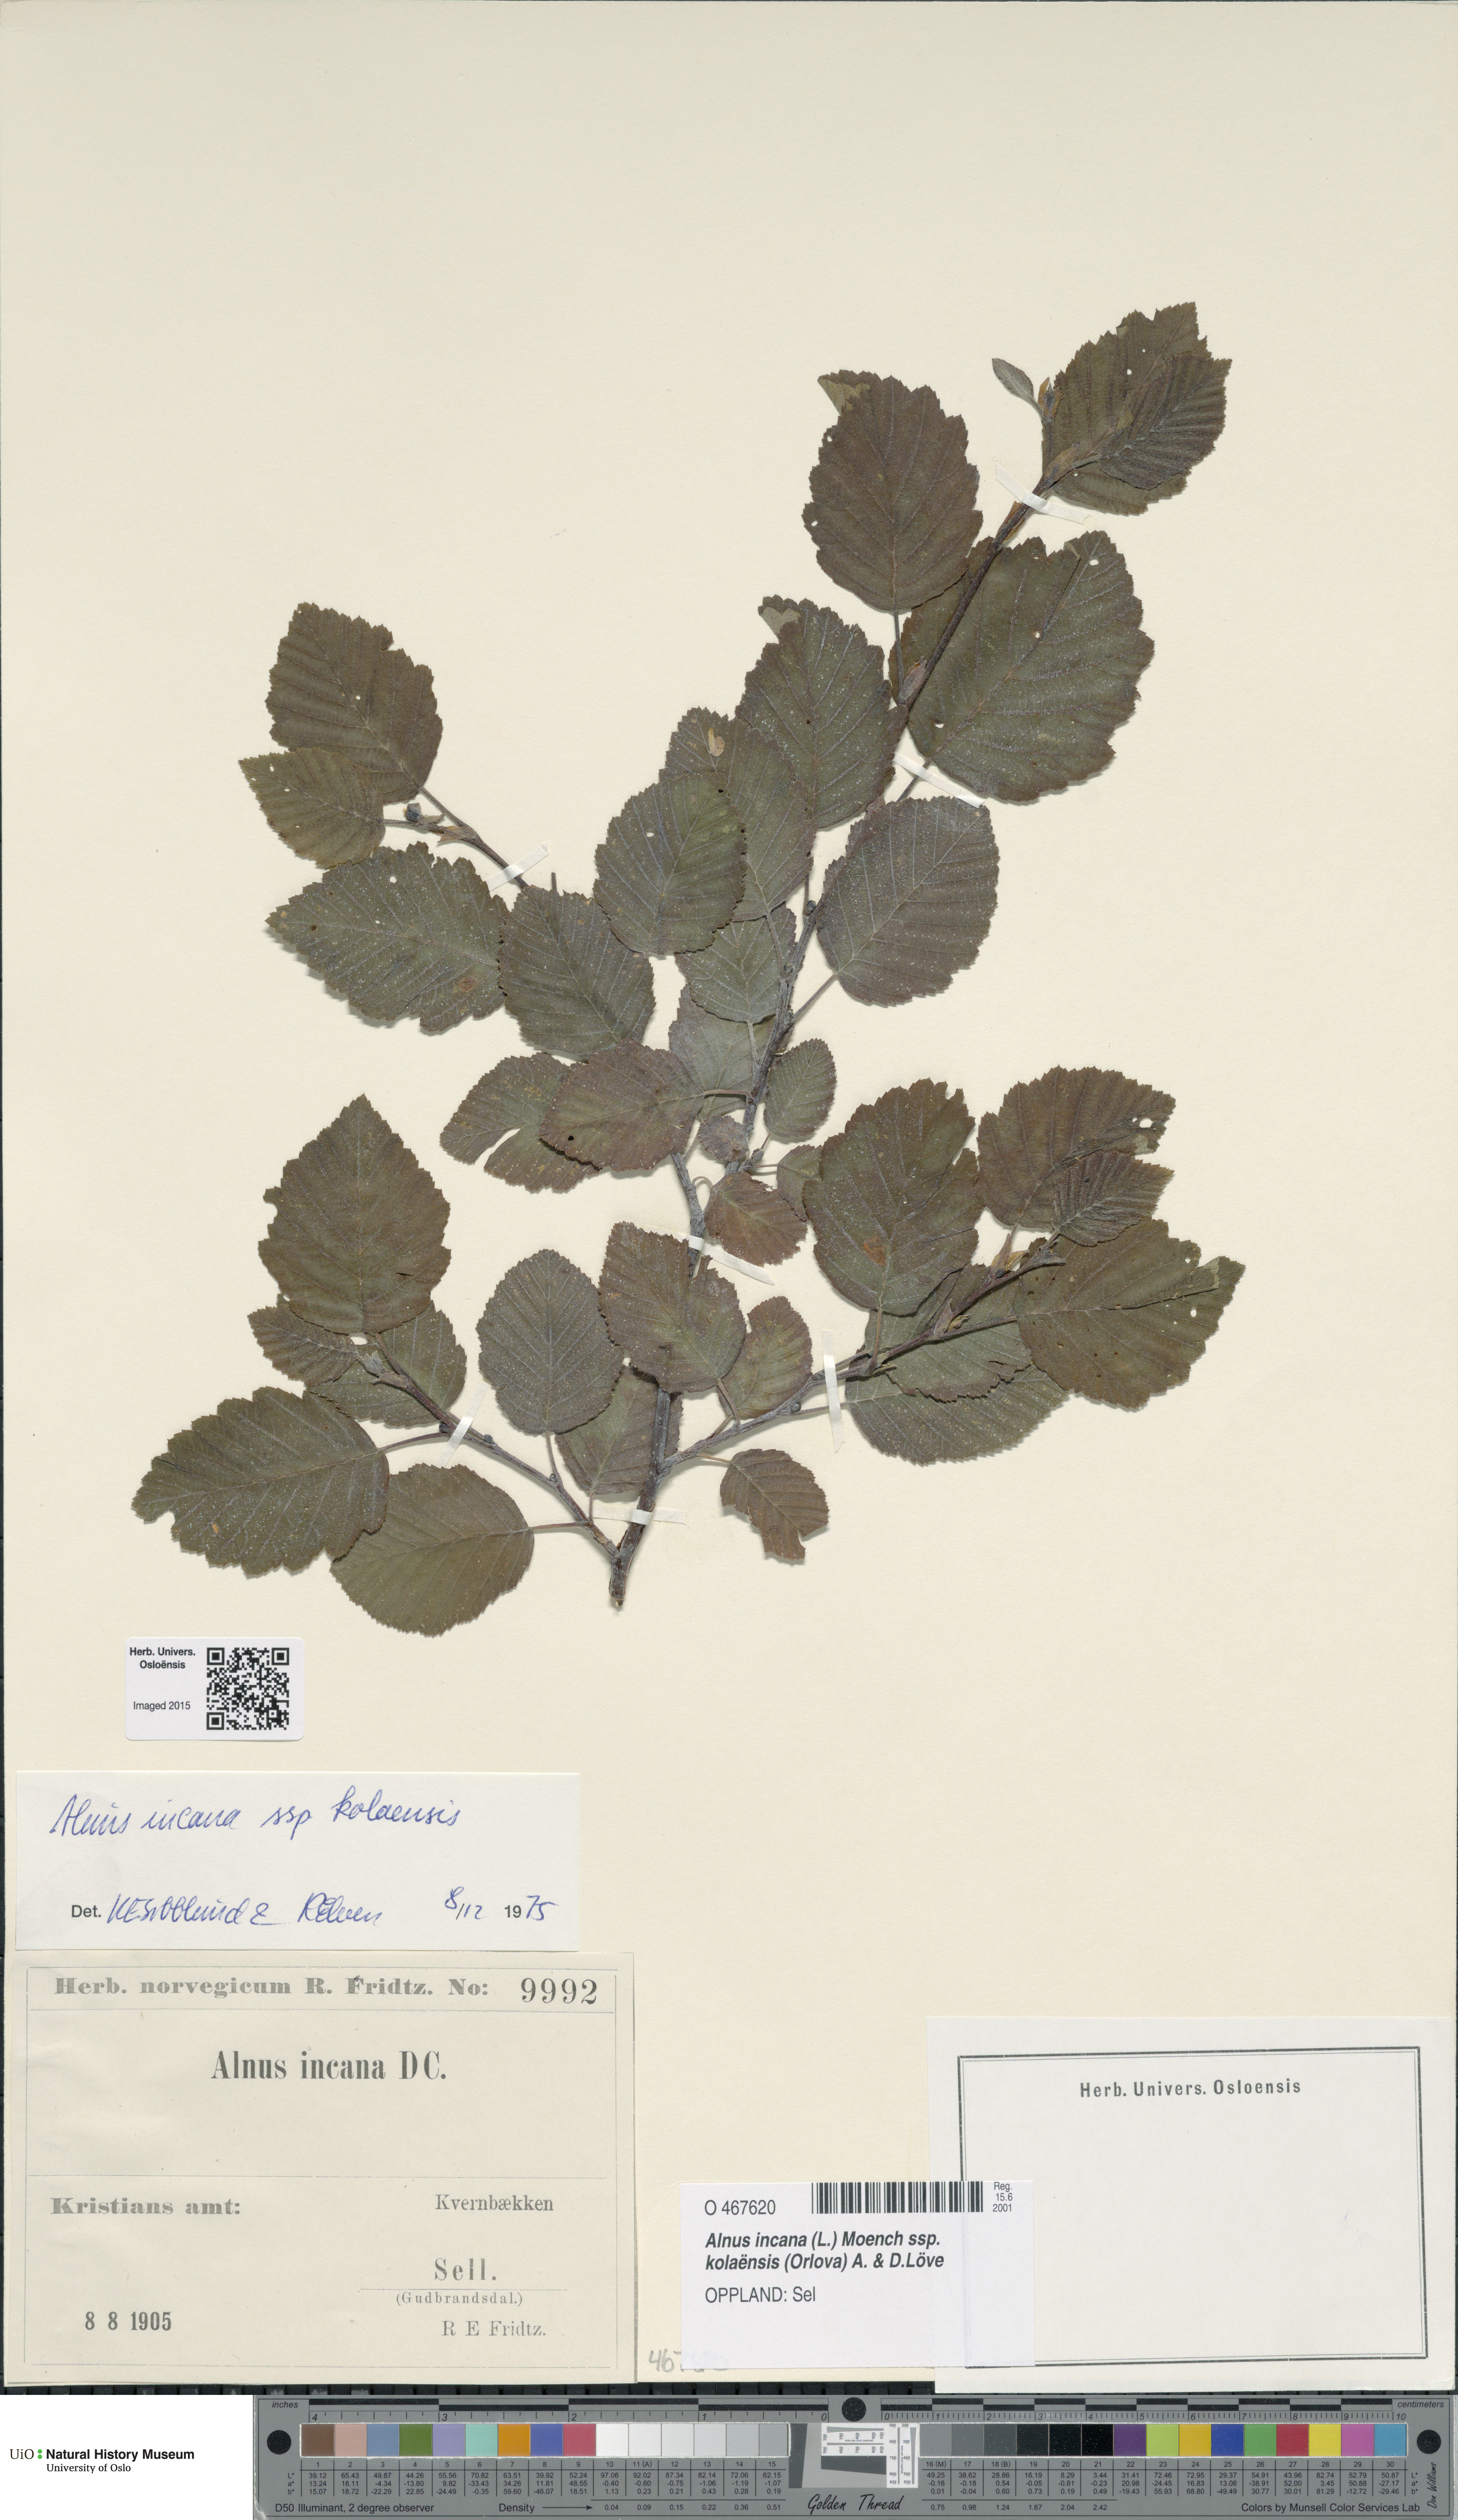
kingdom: Plantae
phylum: Tracheophyta
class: Magnoliopsida
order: Fagales
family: Betulaceae
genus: Alnus
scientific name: Alnus incana
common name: Grey alder
